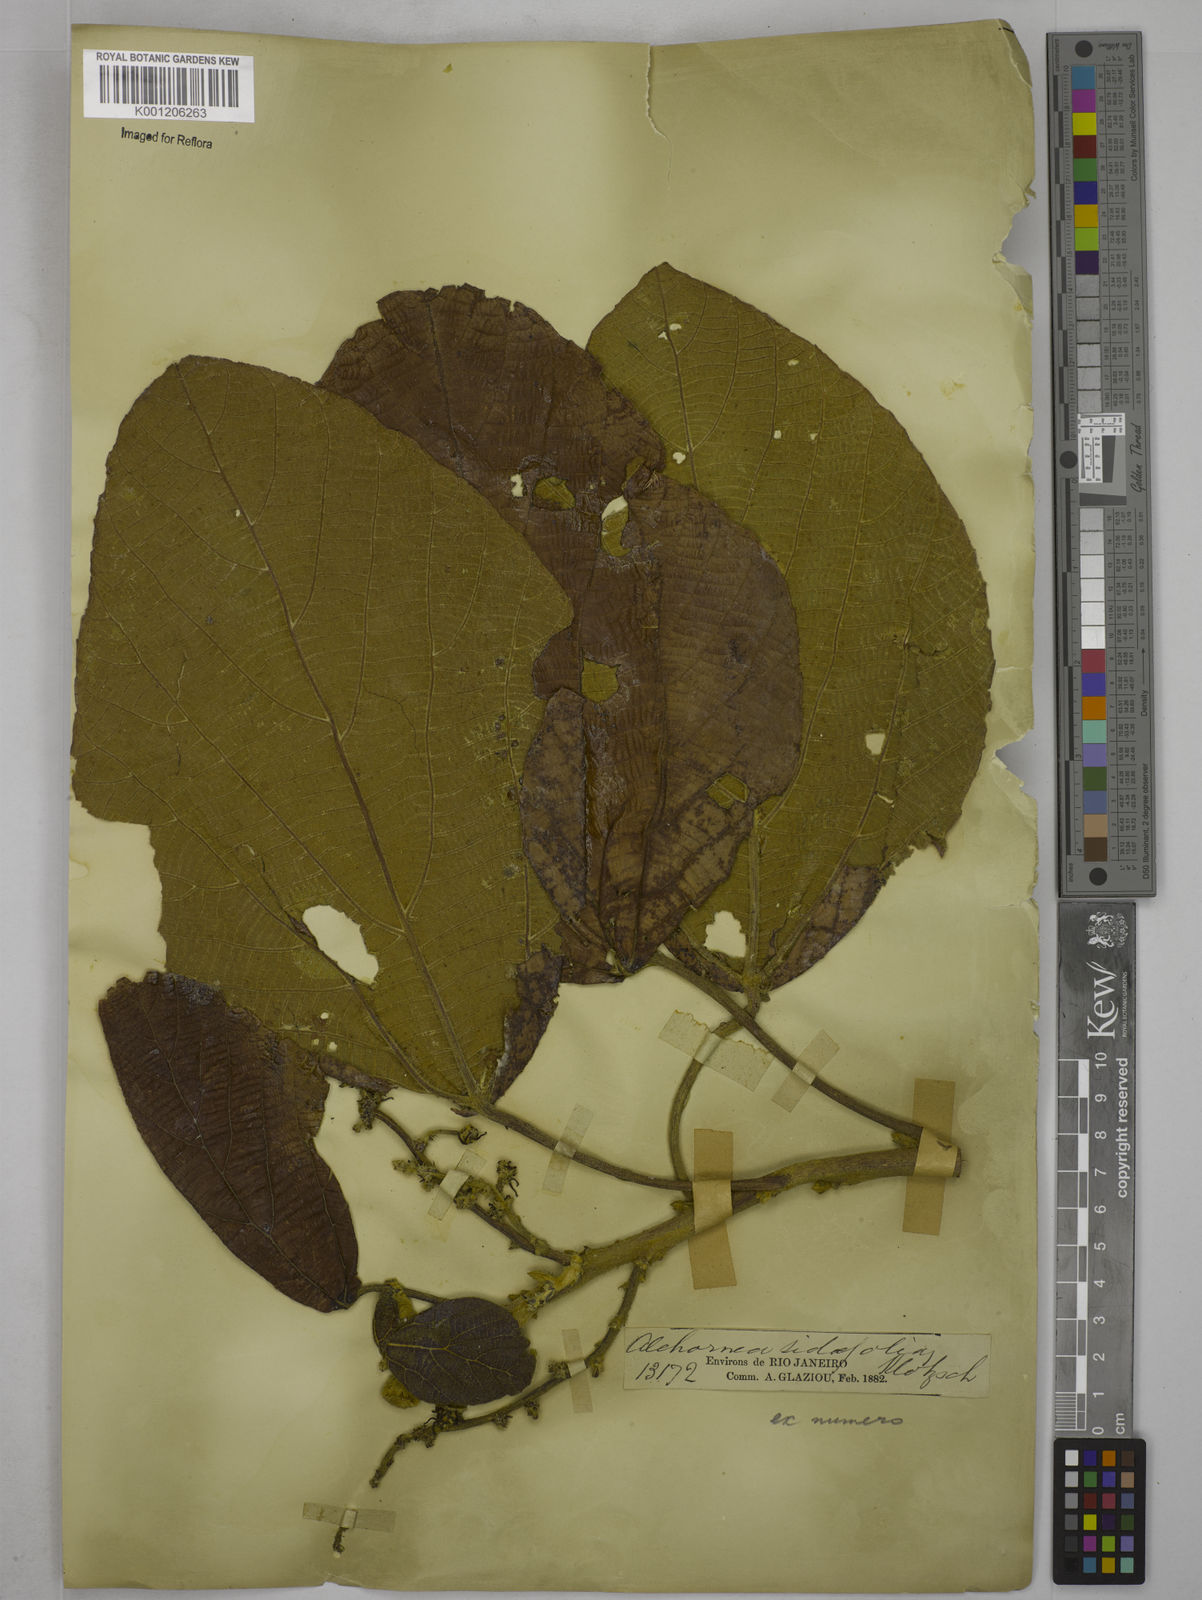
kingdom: Plantae
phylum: Tracheophyta
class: Magnoliopsida
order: Malpighiales
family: Euphorbiaceae
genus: Alchornea
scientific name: Alchornea
